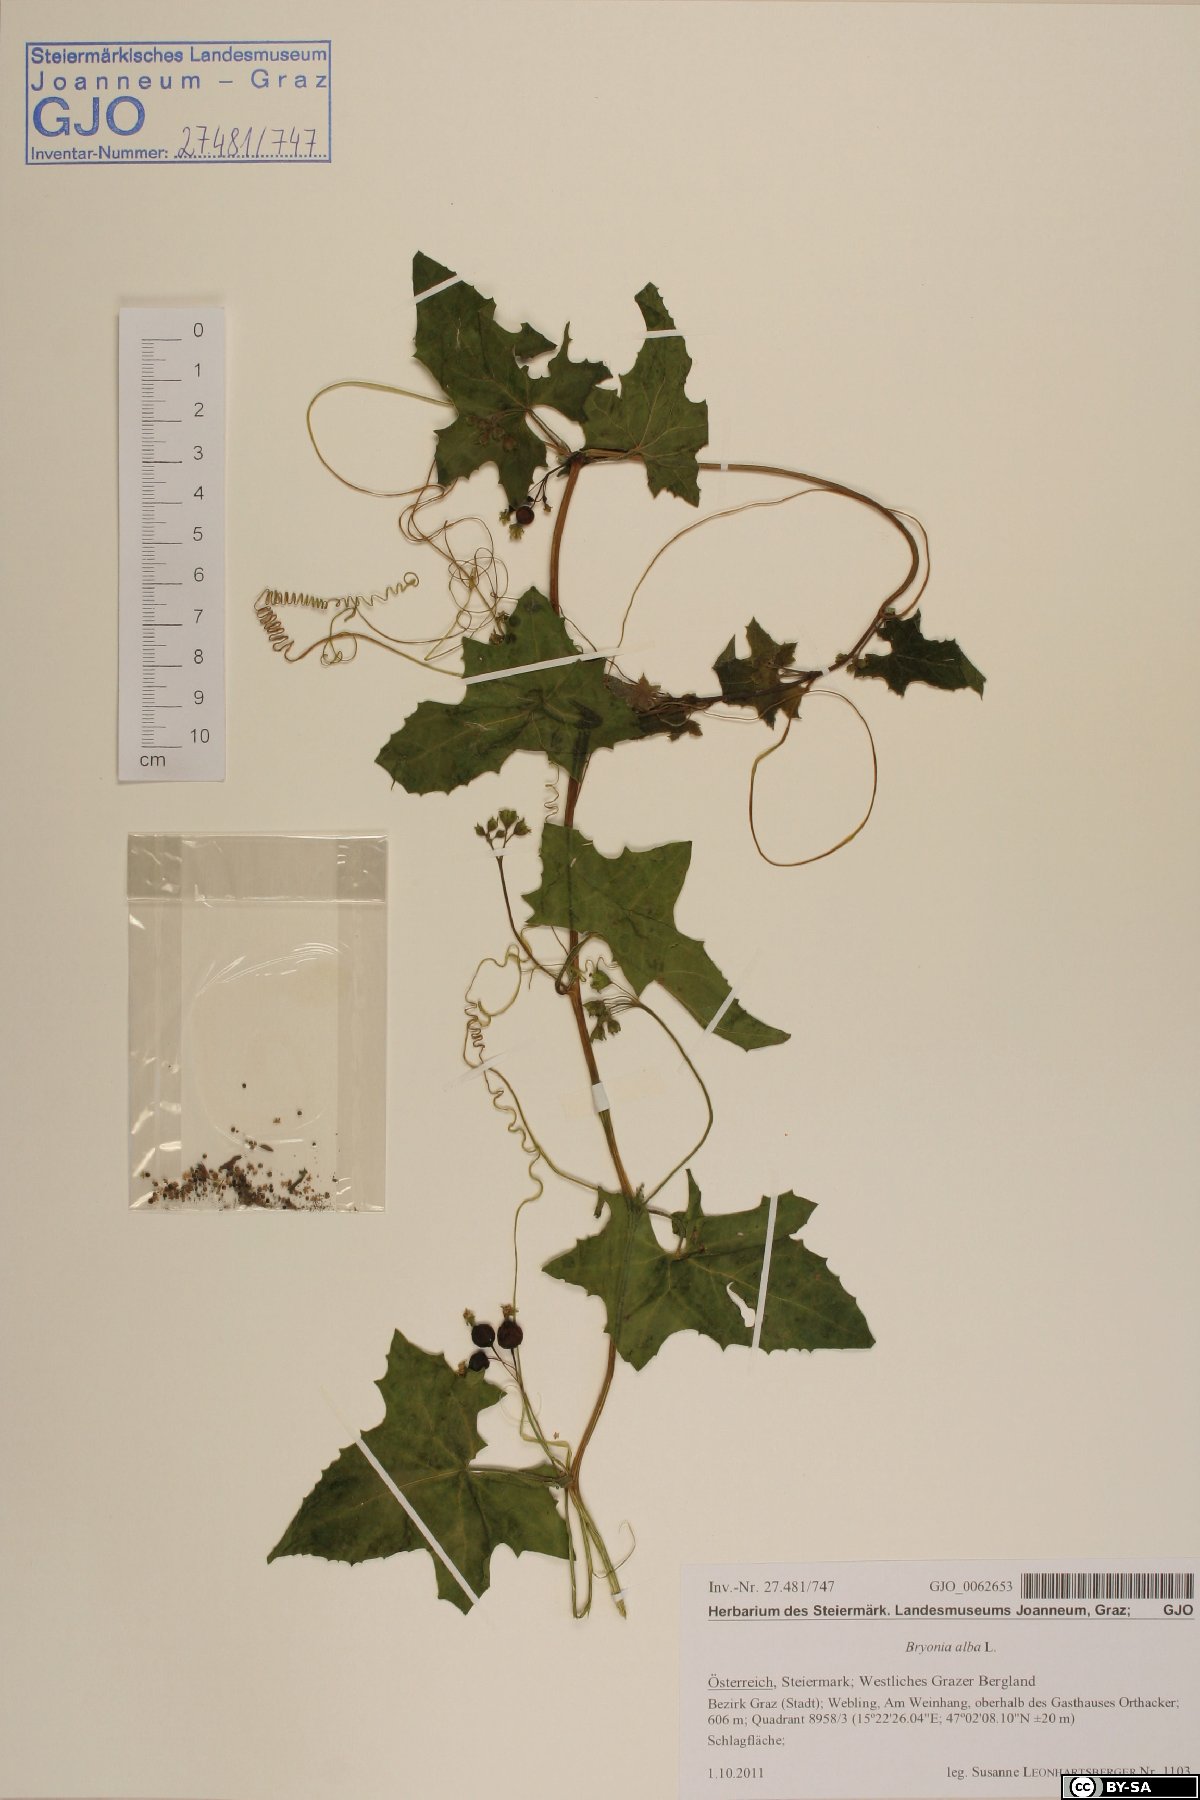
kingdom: Plantae
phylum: Tracheophyta
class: Magnoliopsida
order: Cucurbitales
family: Cucurbitaceae
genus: Bryonia
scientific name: Bryonia alba
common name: White bryony
